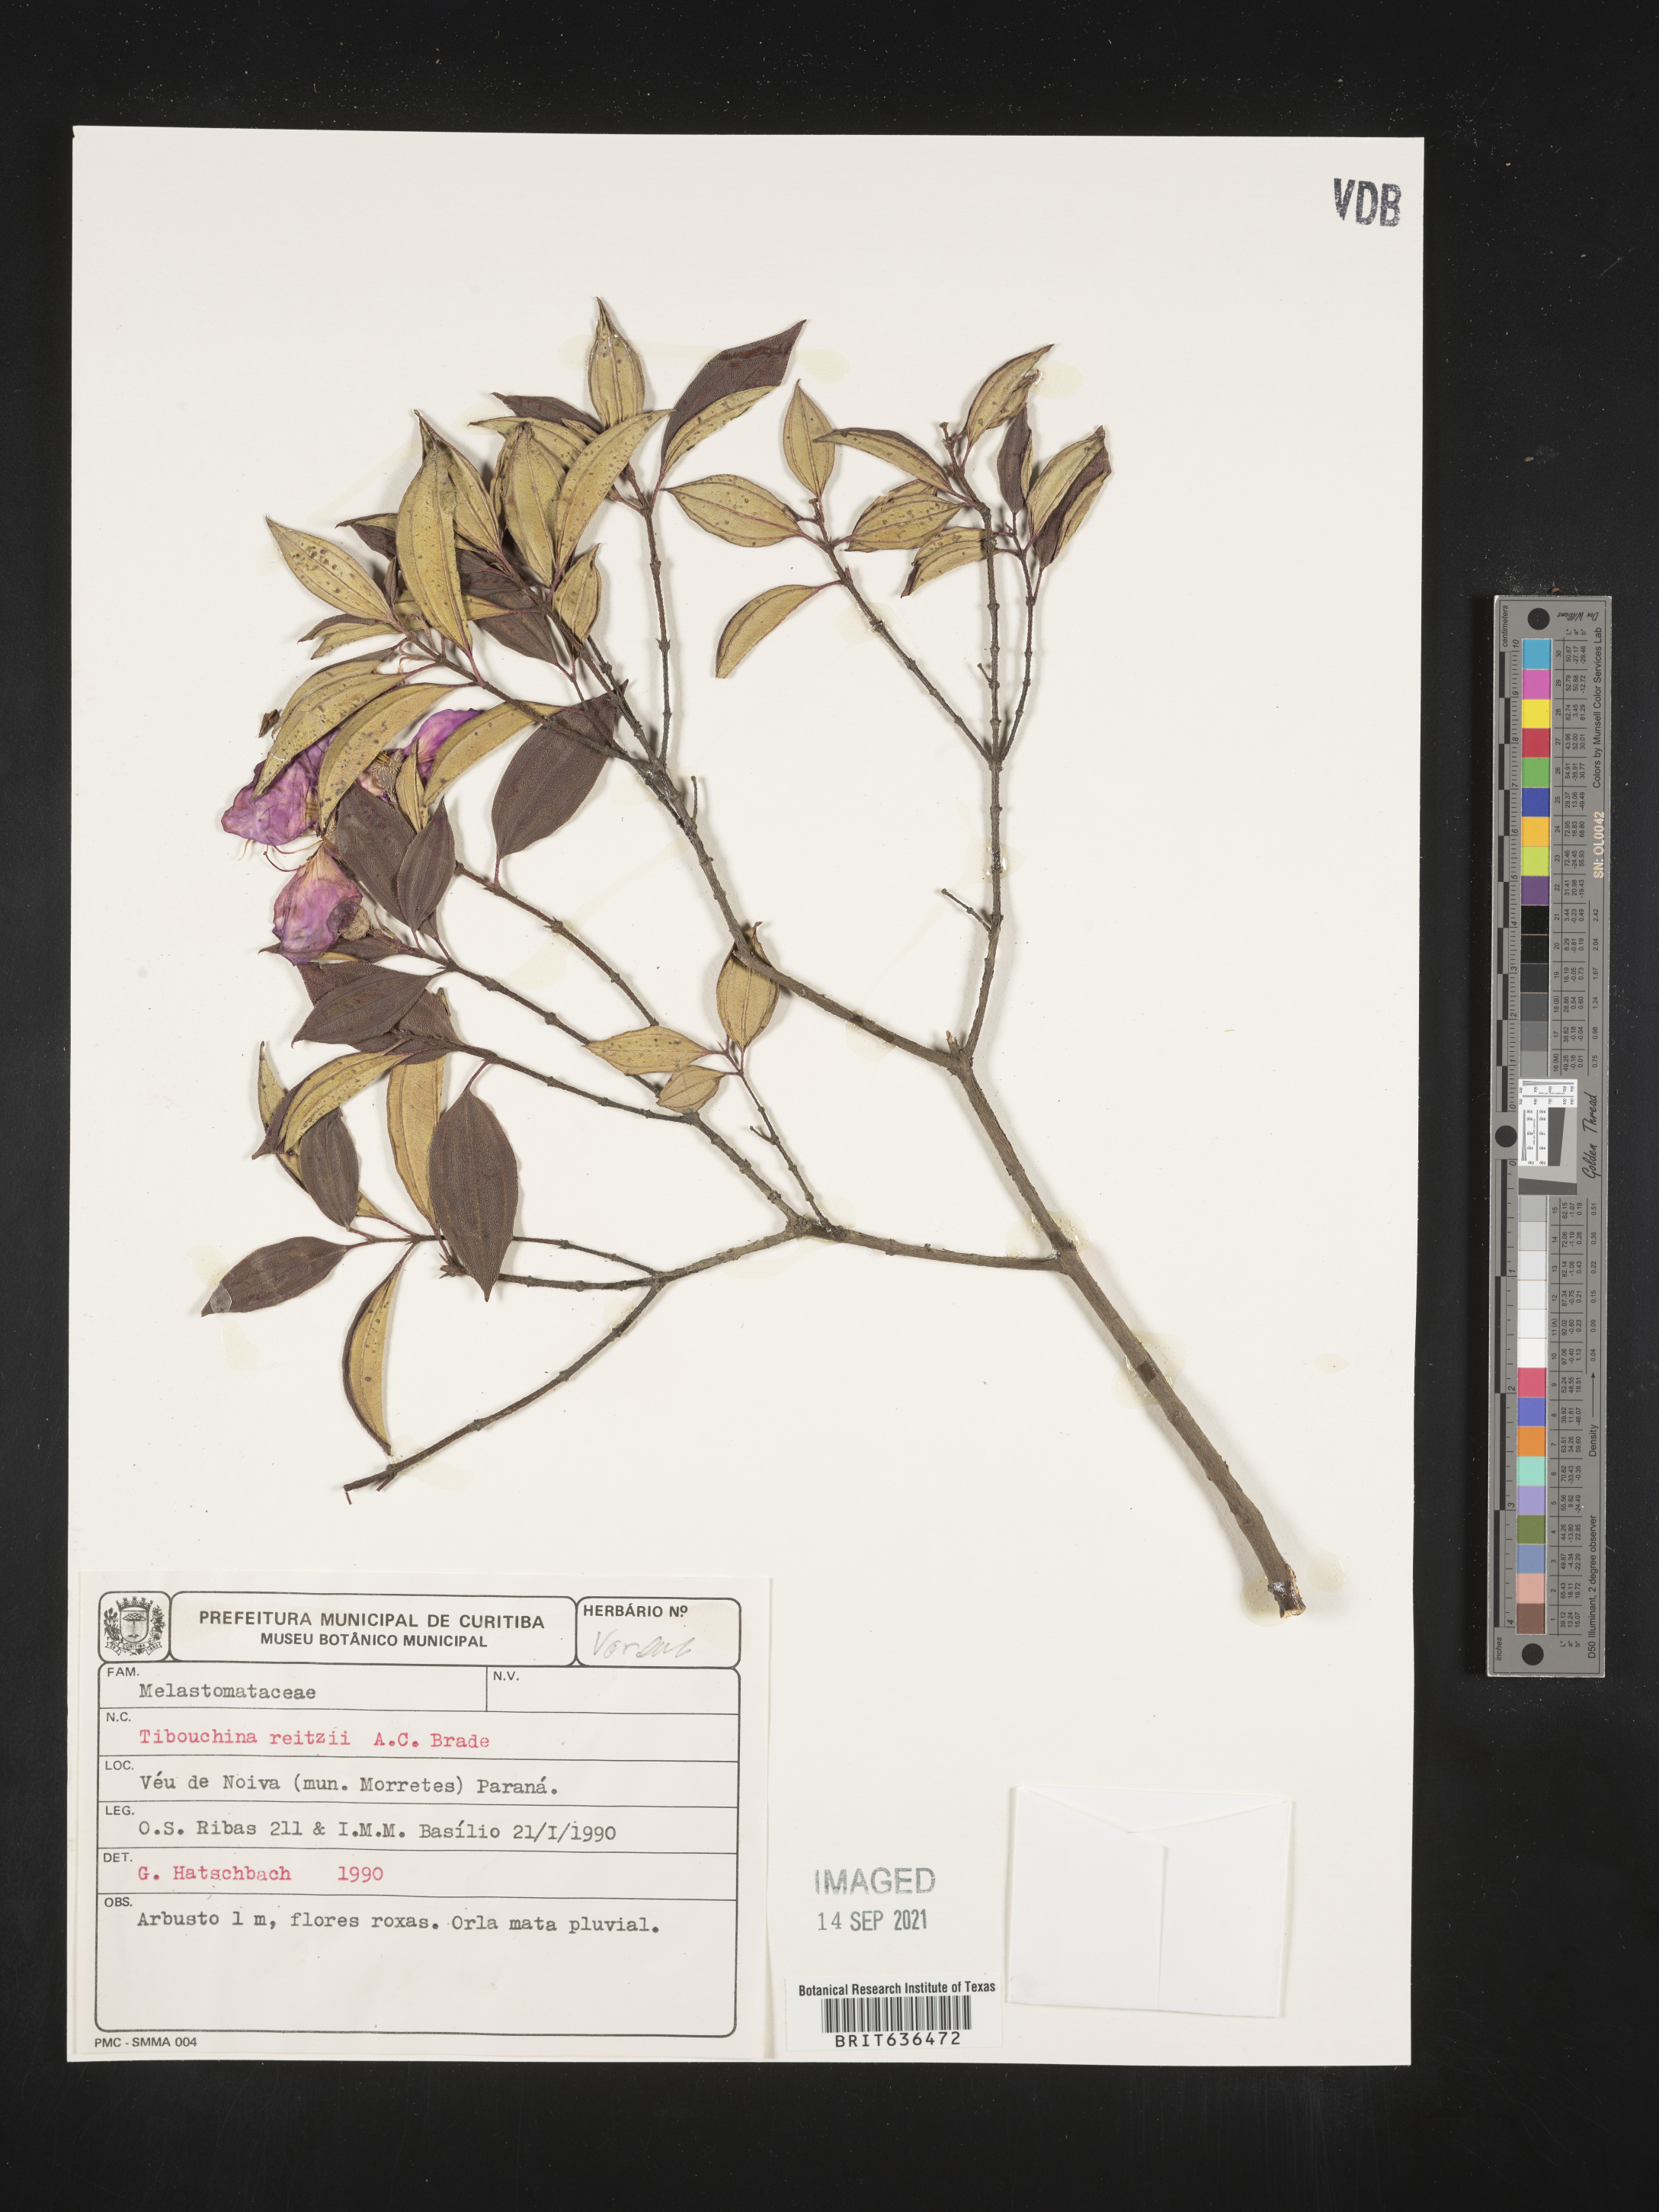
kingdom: Plantae
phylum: Tracheophyta
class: Magnoliopsida
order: Myrtales
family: Melastomataceae
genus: Tibouchina
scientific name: Tibouchina
